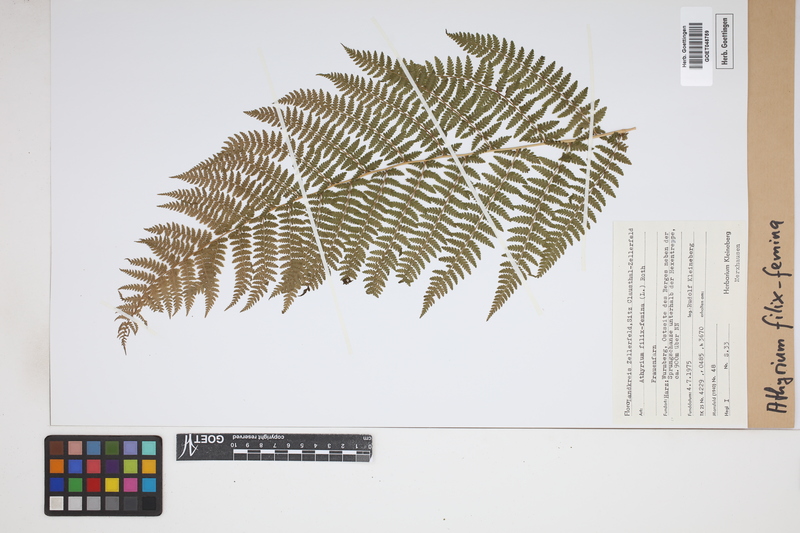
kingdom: Plantae
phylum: Tracheophyta
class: Polypodiopsida
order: Polypodiales
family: Athyriaceae
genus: Athyrium
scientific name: Athyrium filix-femina
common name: Lady fern
